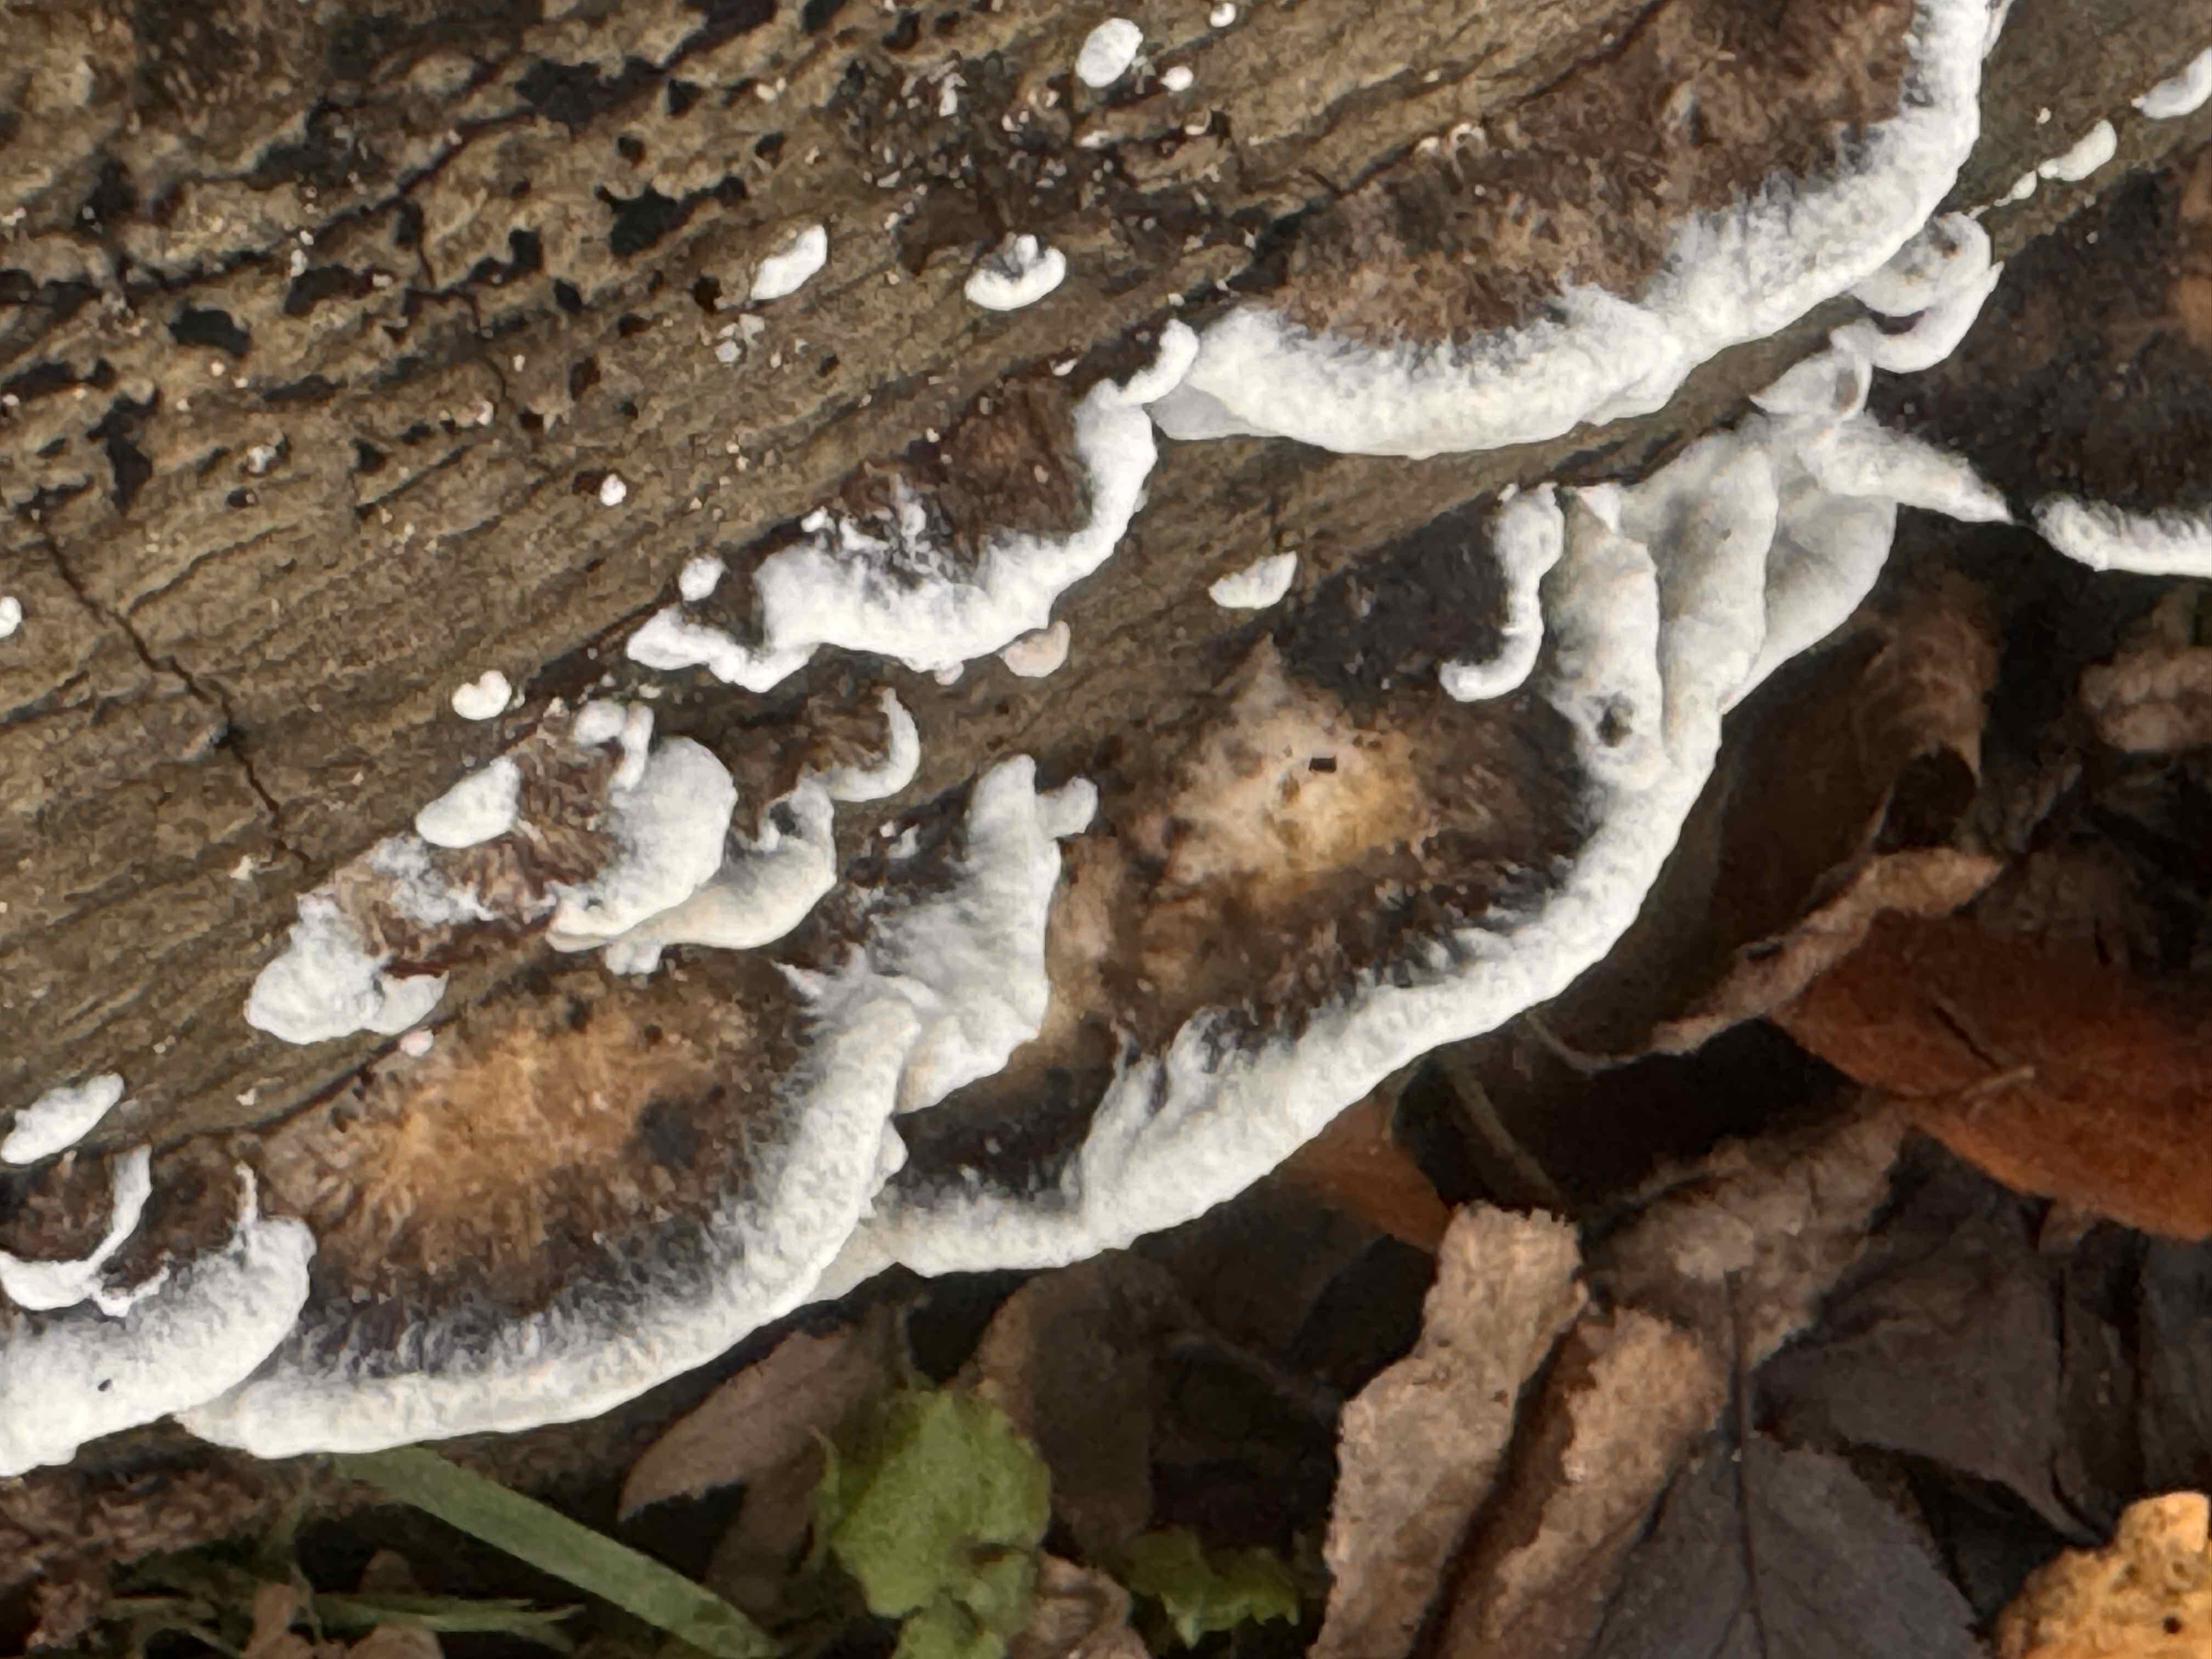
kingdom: Fungi
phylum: Basidiomycota
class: Agaricomycetes
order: Polyporales
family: Phanerochaetaceae
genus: Bjerkandera
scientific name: Bjerkandera adusta
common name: sveden sodporesvamp
